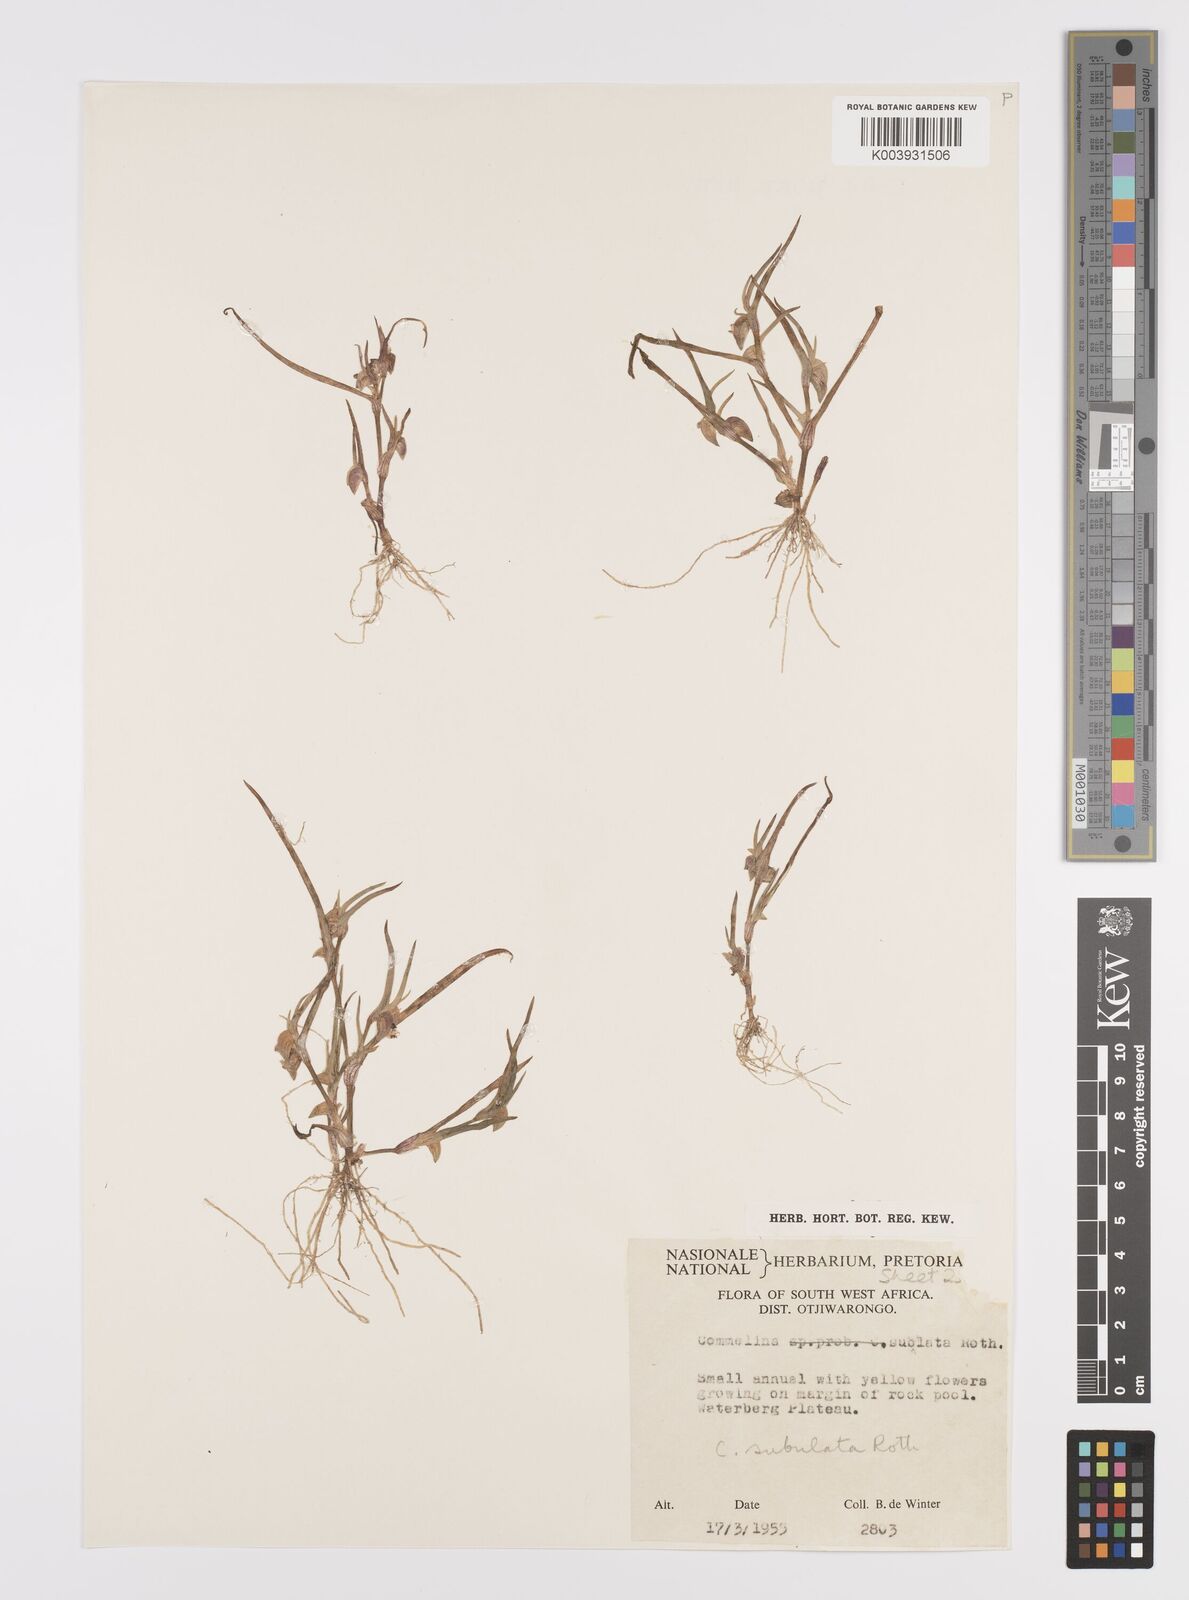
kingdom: Plantae
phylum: Tracheophyta
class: Liliopsida
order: Commelinales
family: Commelinaceae
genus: Commelina
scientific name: Commelina subulata
